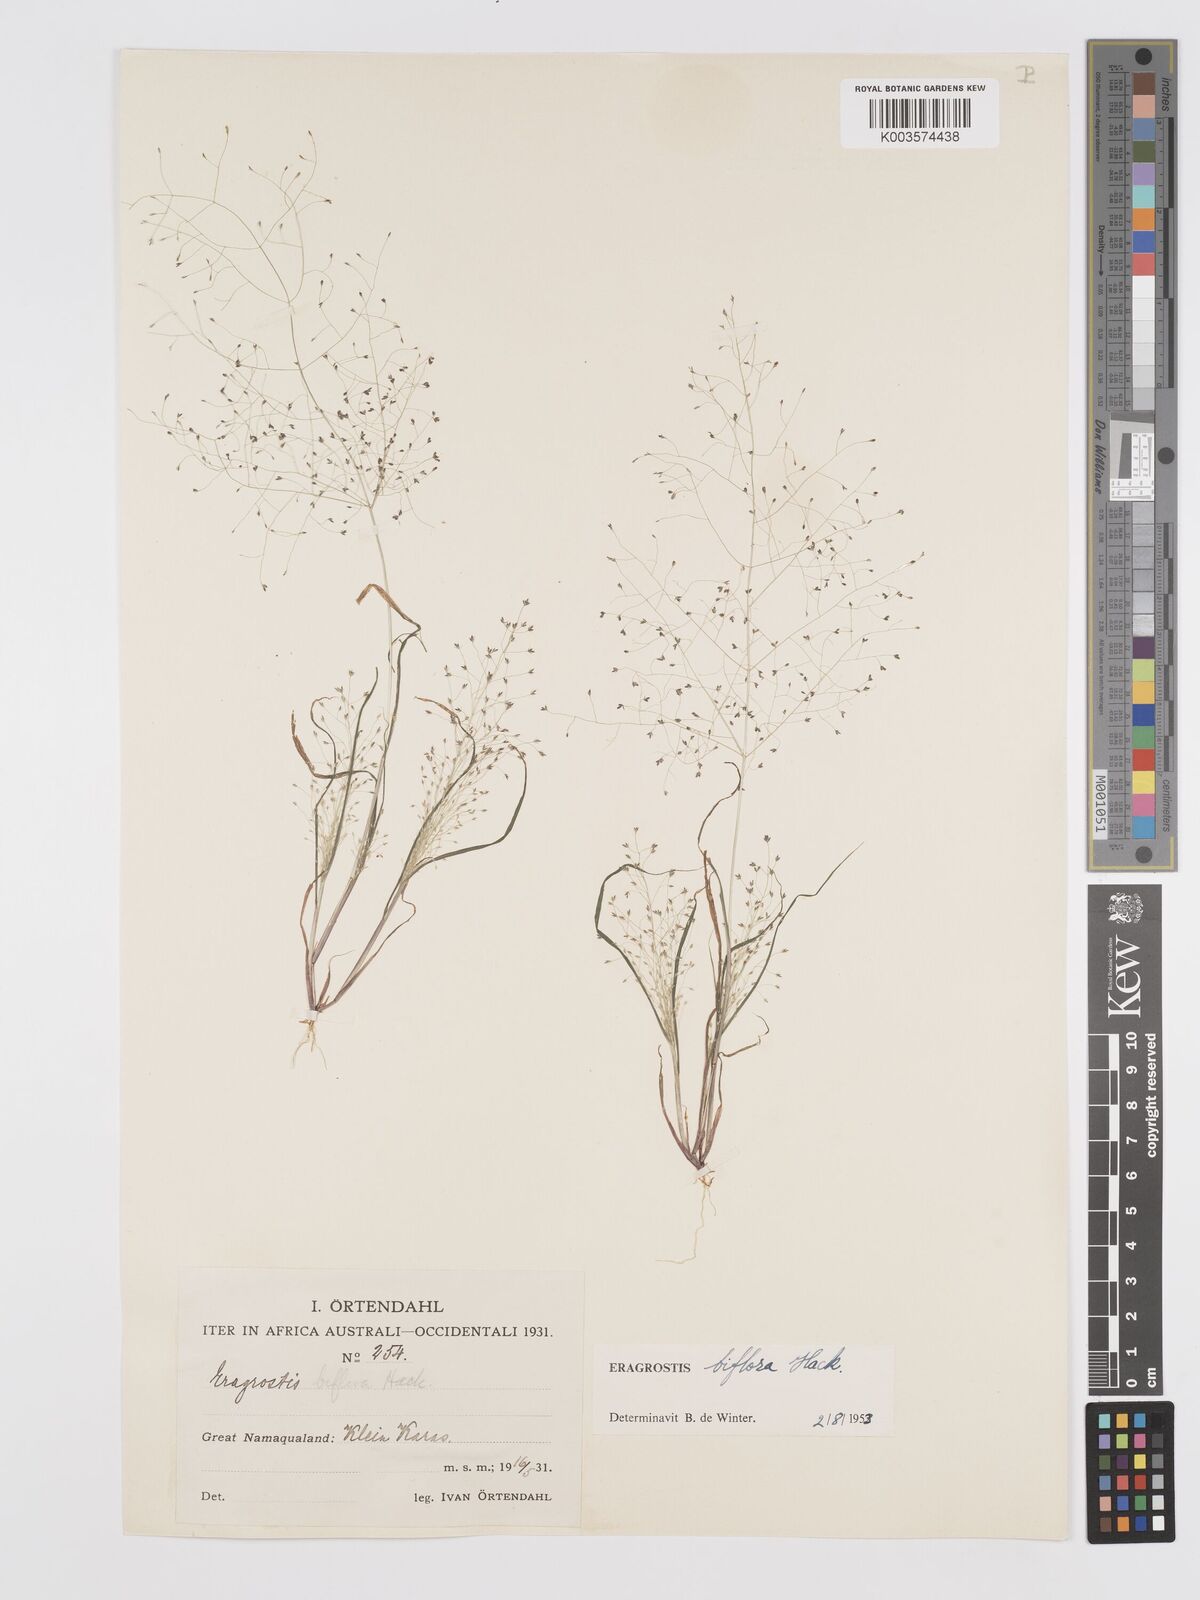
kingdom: Plantae
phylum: Tracheophyta
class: Liliopsida
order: Poales
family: Poaceae
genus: Eragrostis
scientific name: Eragrostis biflora
